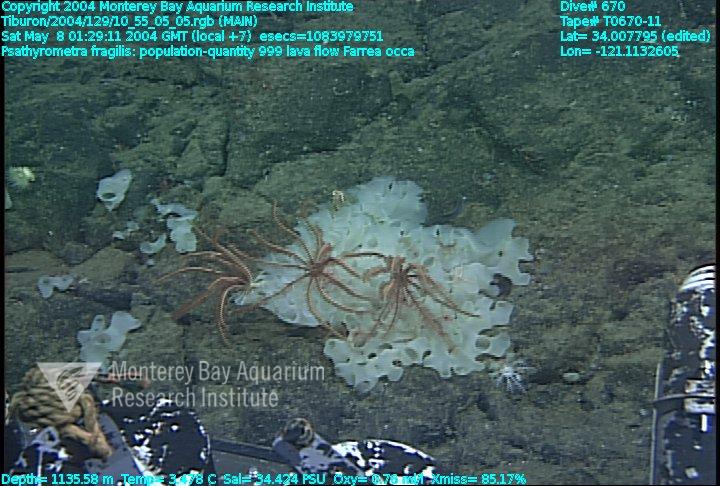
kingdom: Animalia
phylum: Porifera
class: Hexactinellida
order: Sceptrulophora
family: Farreidae
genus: Farrea
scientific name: Farrea occa
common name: Reversed glass sponge
